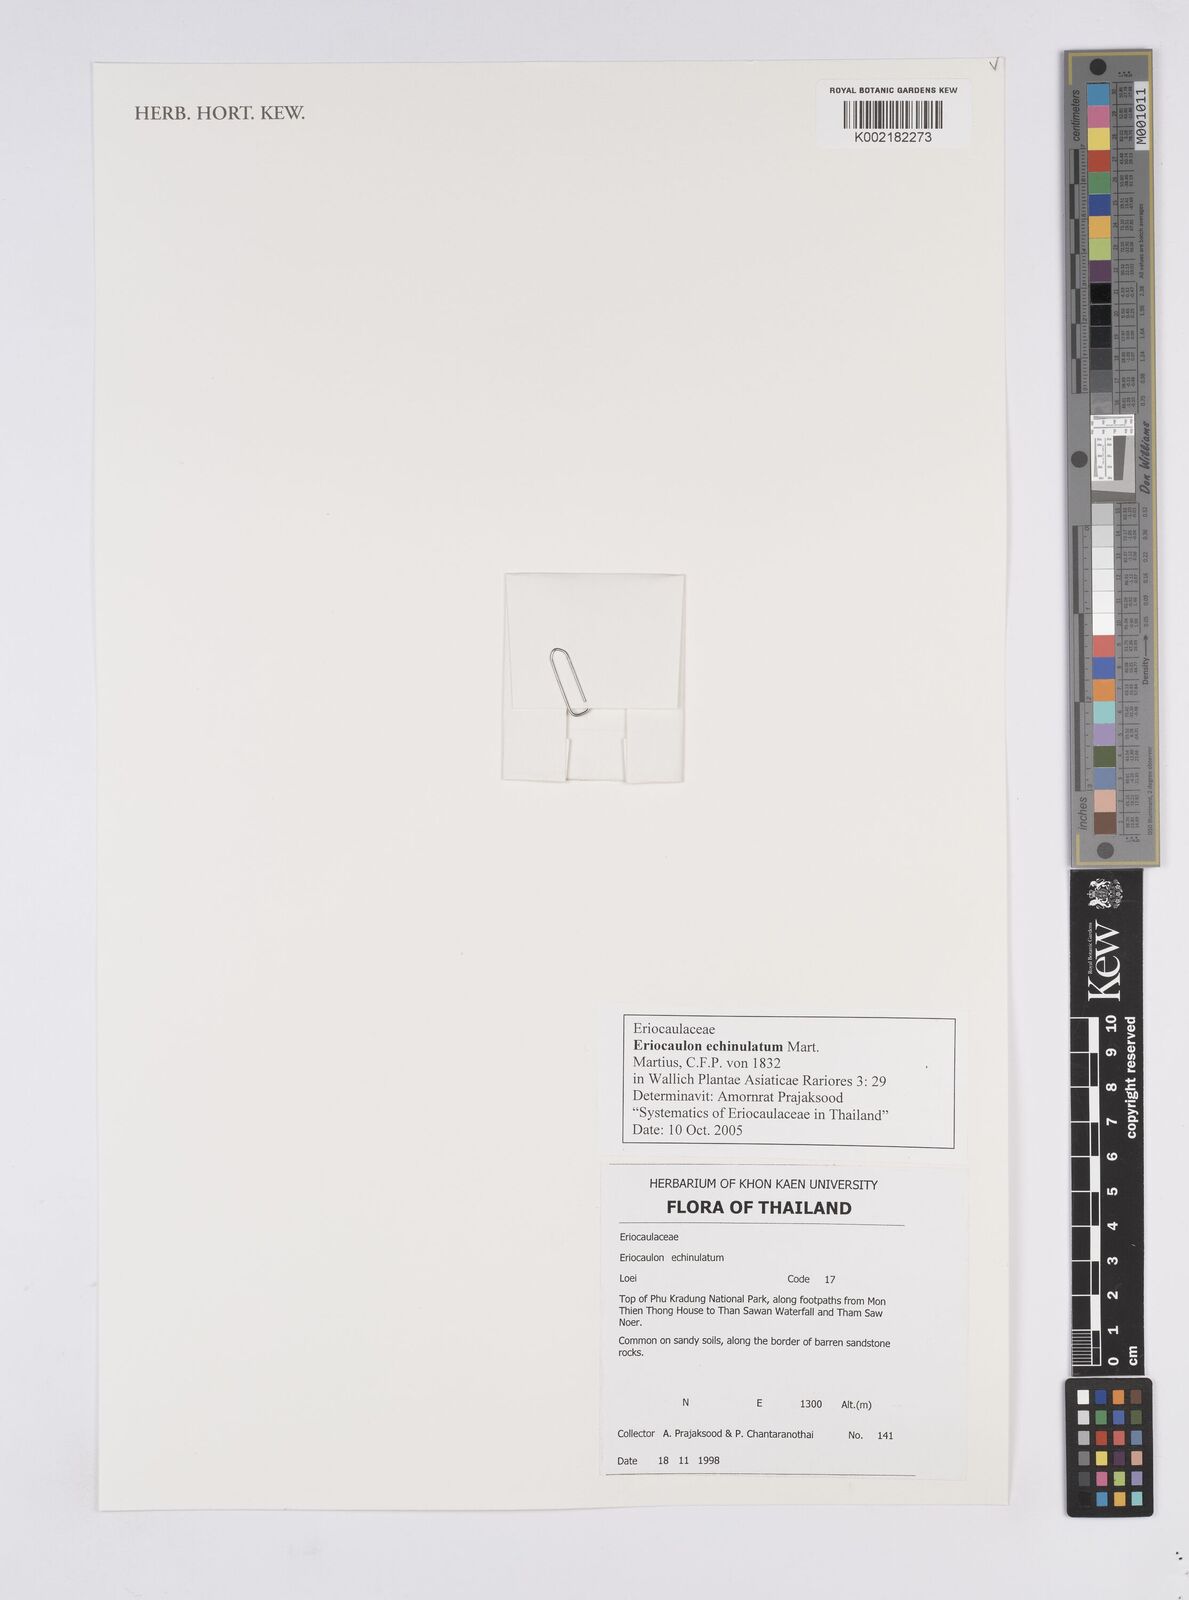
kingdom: Plantae
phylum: Tracheophyta
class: Liliopsida
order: Poales
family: Eriocaulaceae
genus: Eriocaulon
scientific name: Eriocaulon echinulatum
